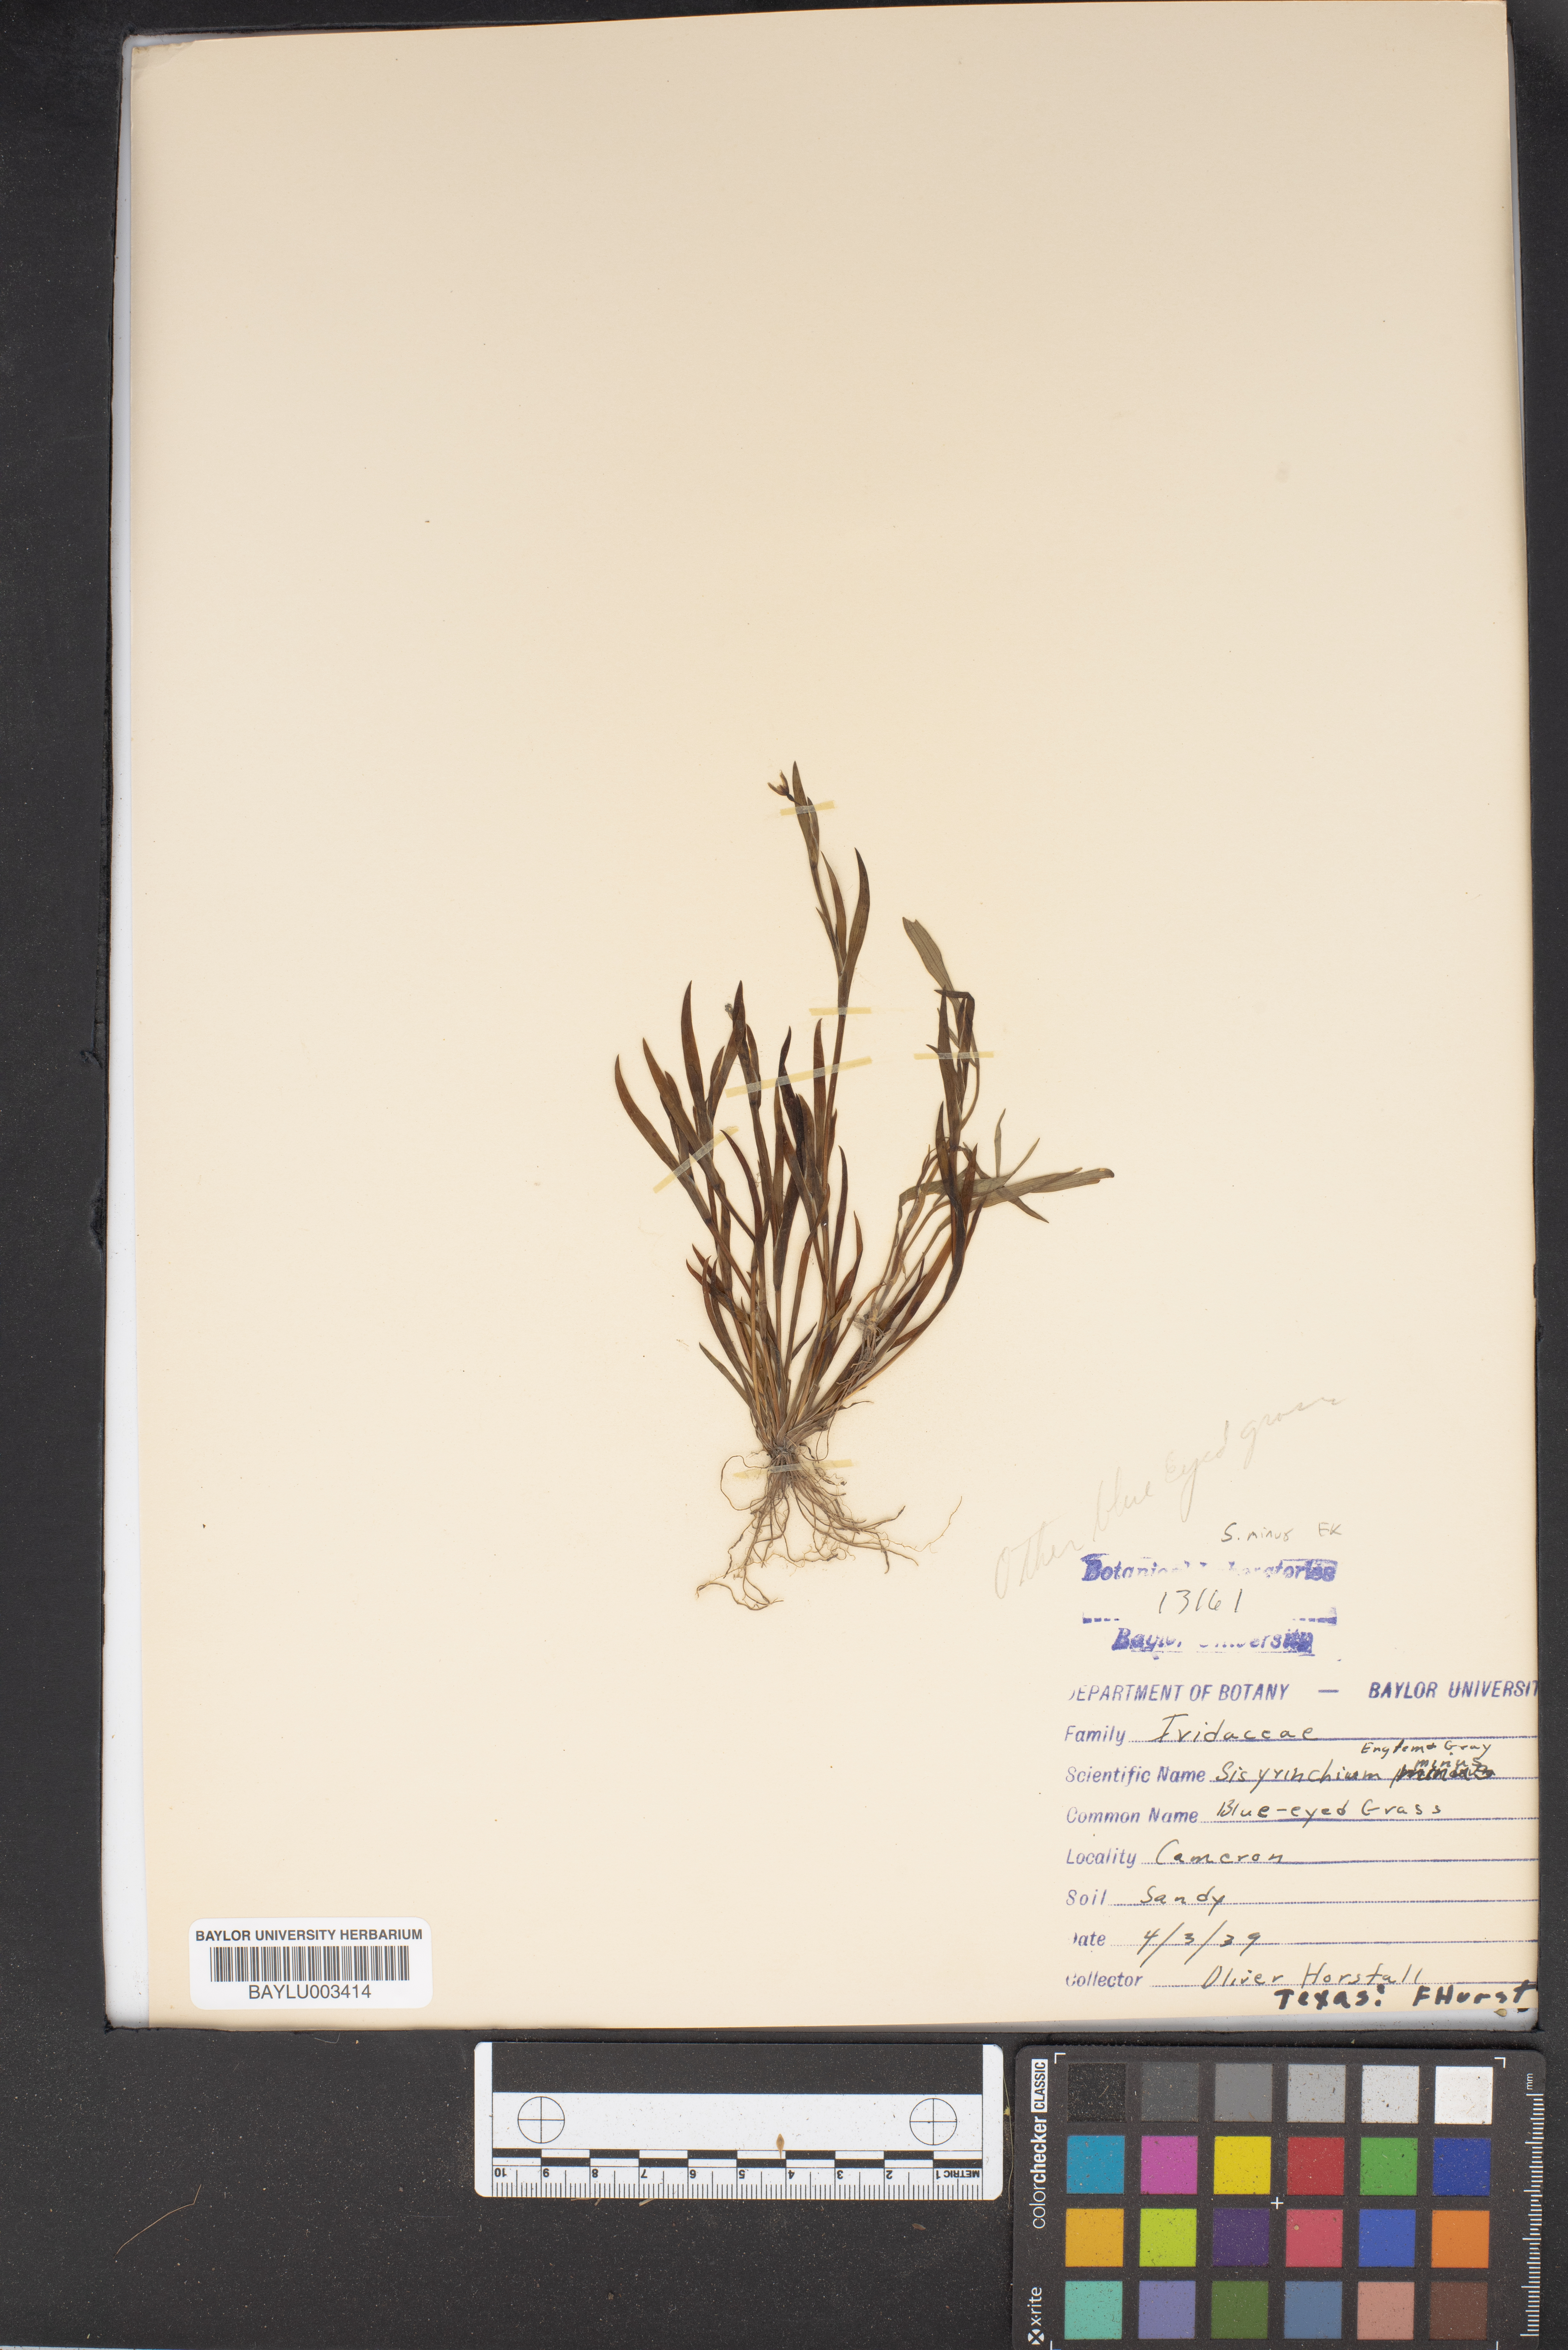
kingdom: Plantae
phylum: Tracheophyta
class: Liliopsida
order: Asparagales
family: Iridaceae
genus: Sisyrinchium
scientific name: Sisyrinchium minus
